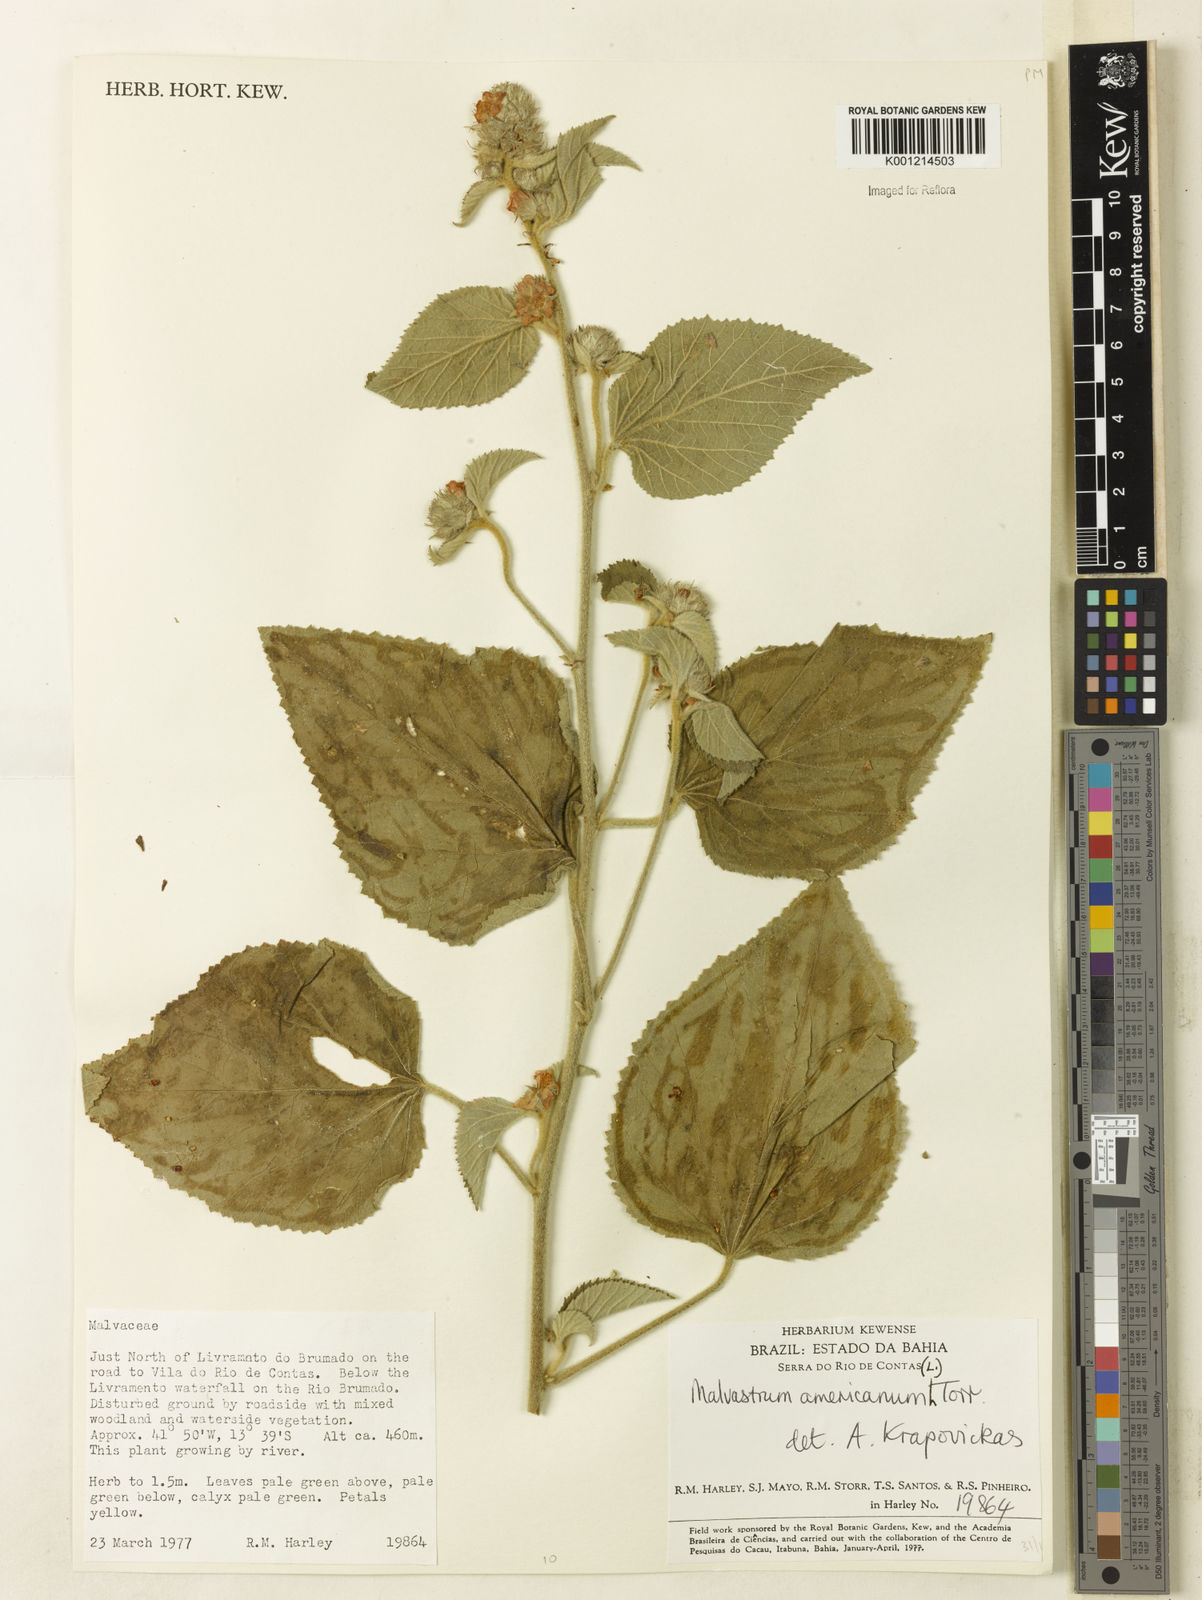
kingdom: Plantae
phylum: Tracheophyta
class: Magnoliopsida
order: Malvales
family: Malvaceae
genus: Malvastrum
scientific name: Malvastrum americanum
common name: Spiked malvastrum
